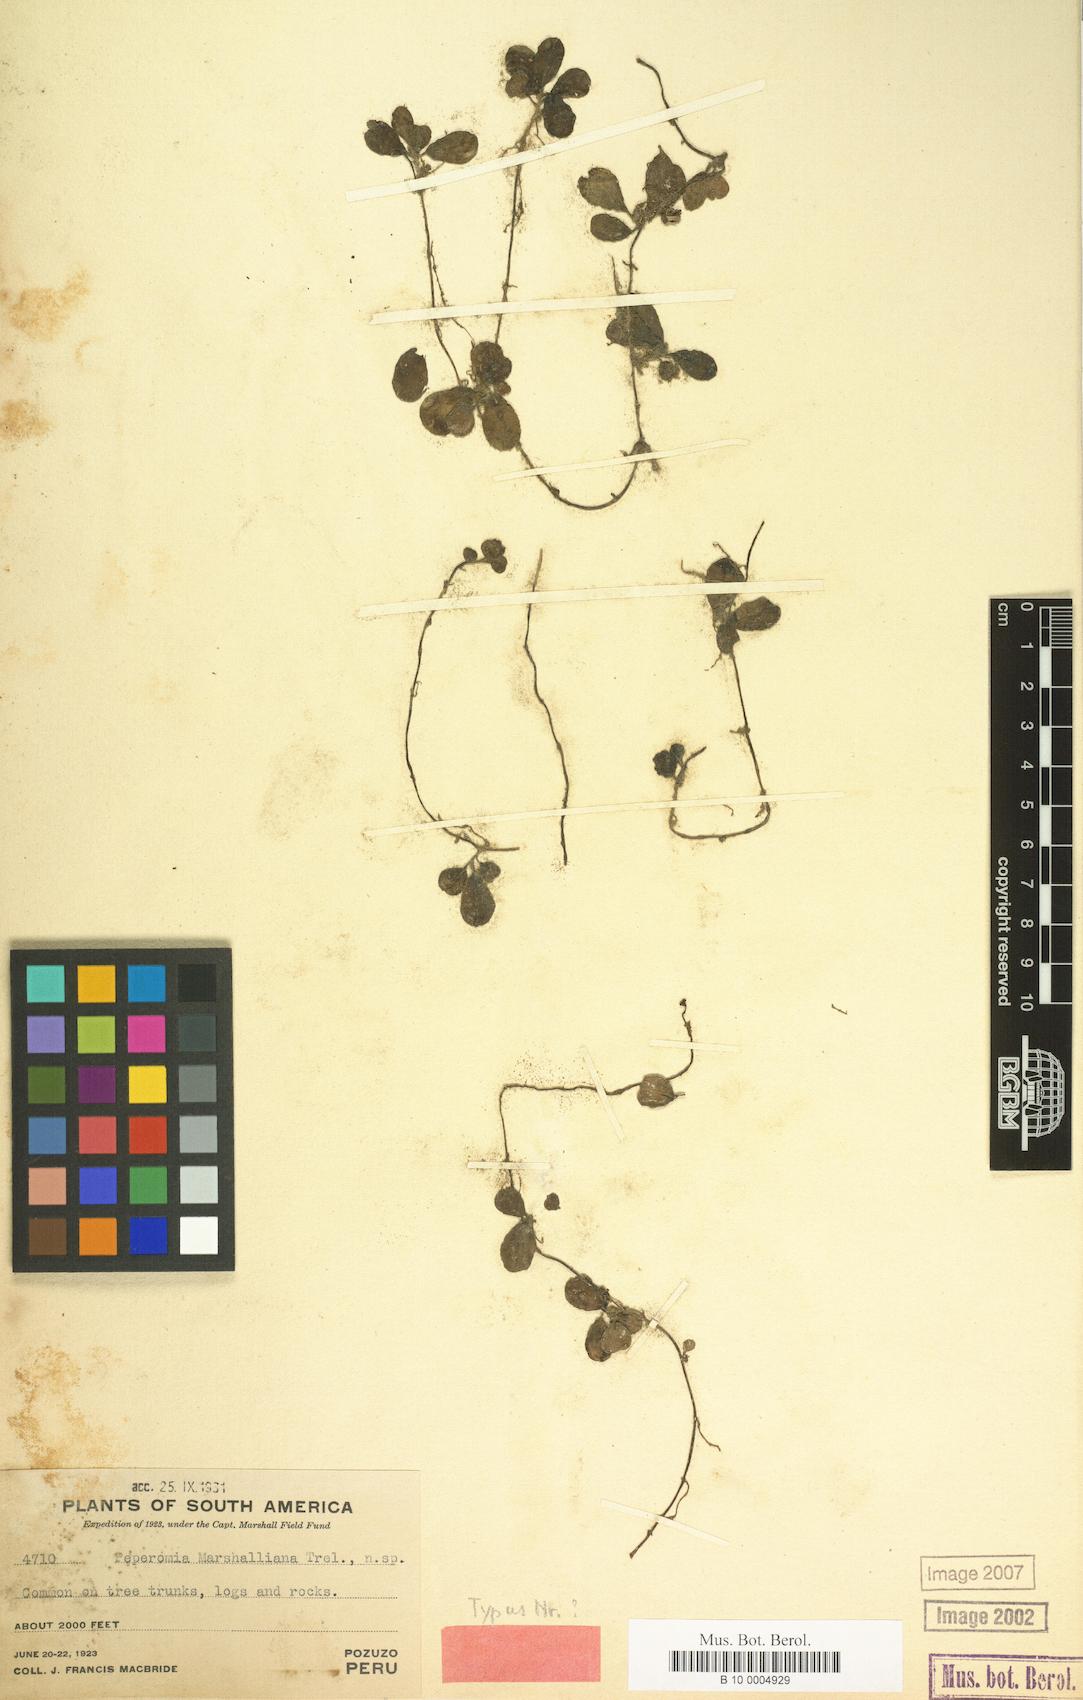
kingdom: Plantae
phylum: Tracheophyta
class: Magnoliopsida
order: Piperales
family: Piperaceae
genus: Peperomia
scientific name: Peperomia marshalliana
